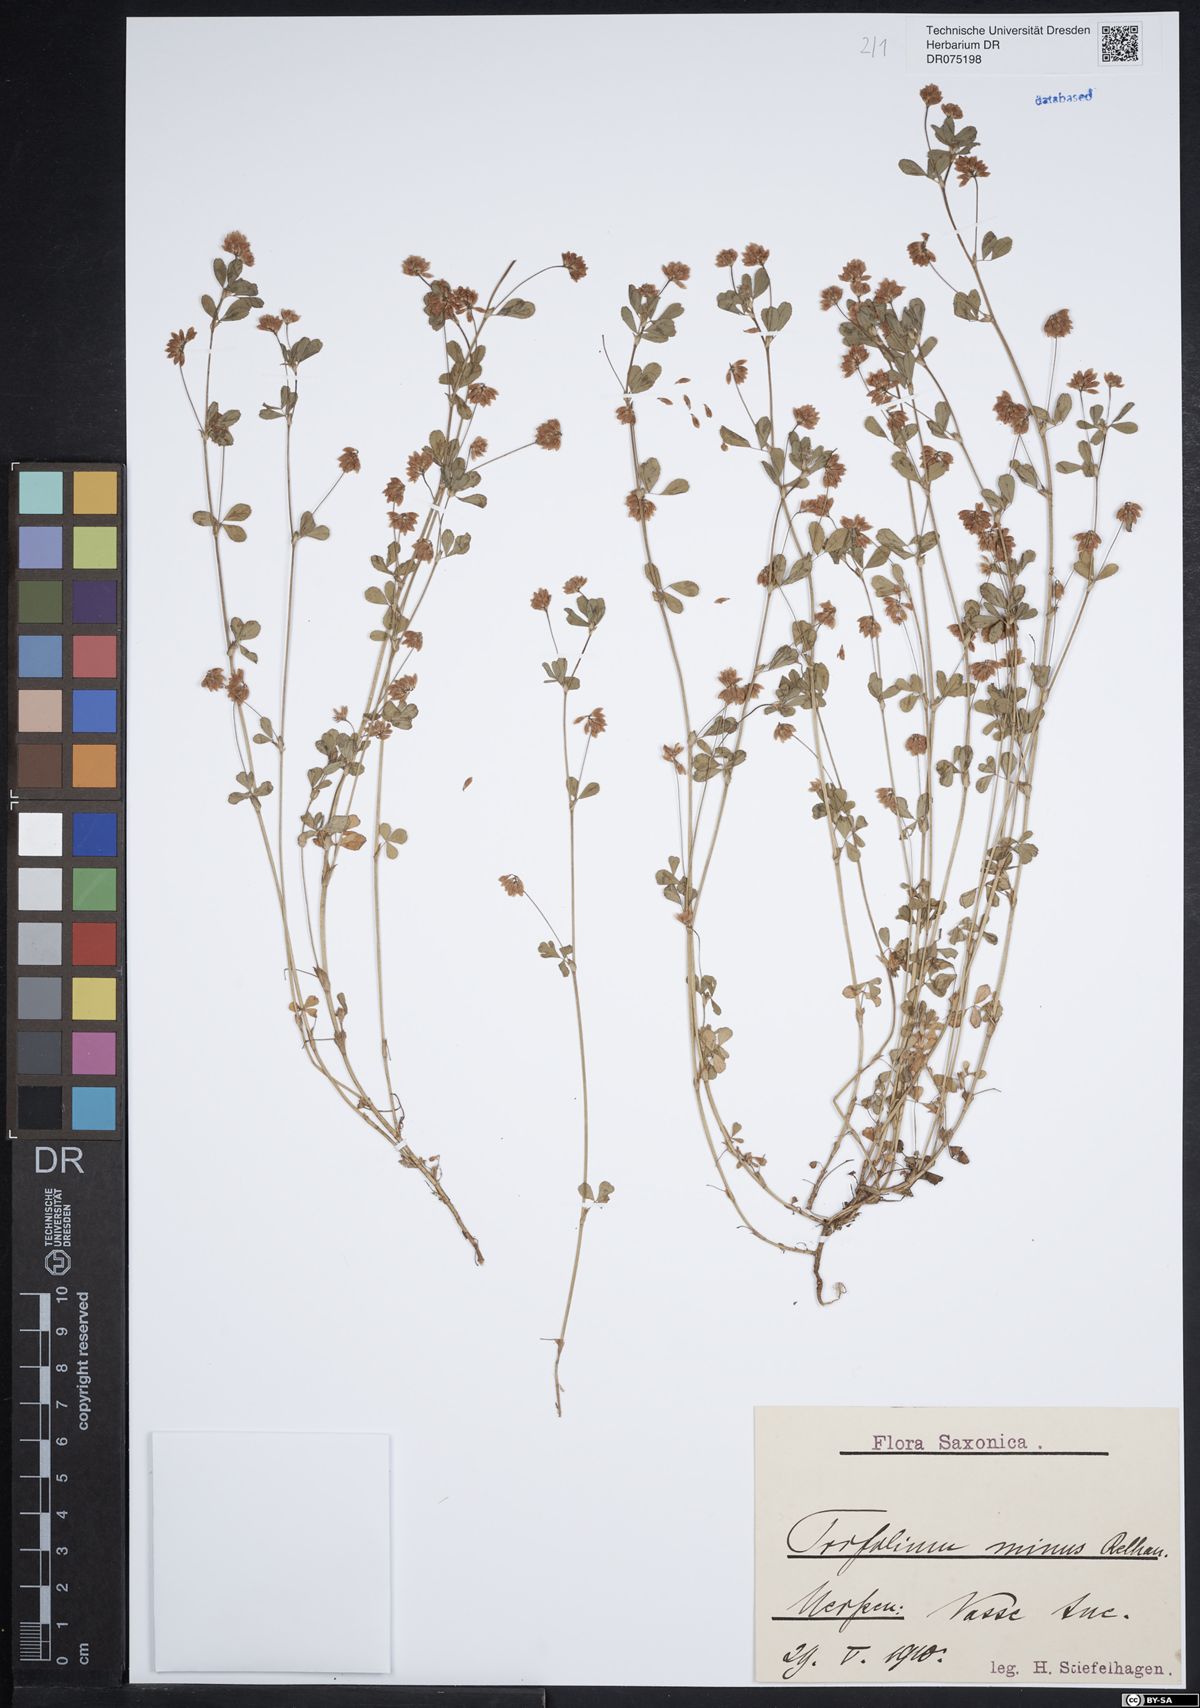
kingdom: Plantae
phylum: Tracheophyta
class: Magnoliopsida
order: Fabales
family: Fabaceae
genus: Trifolium
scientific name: Trifolium dubium
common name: Suckling clover
